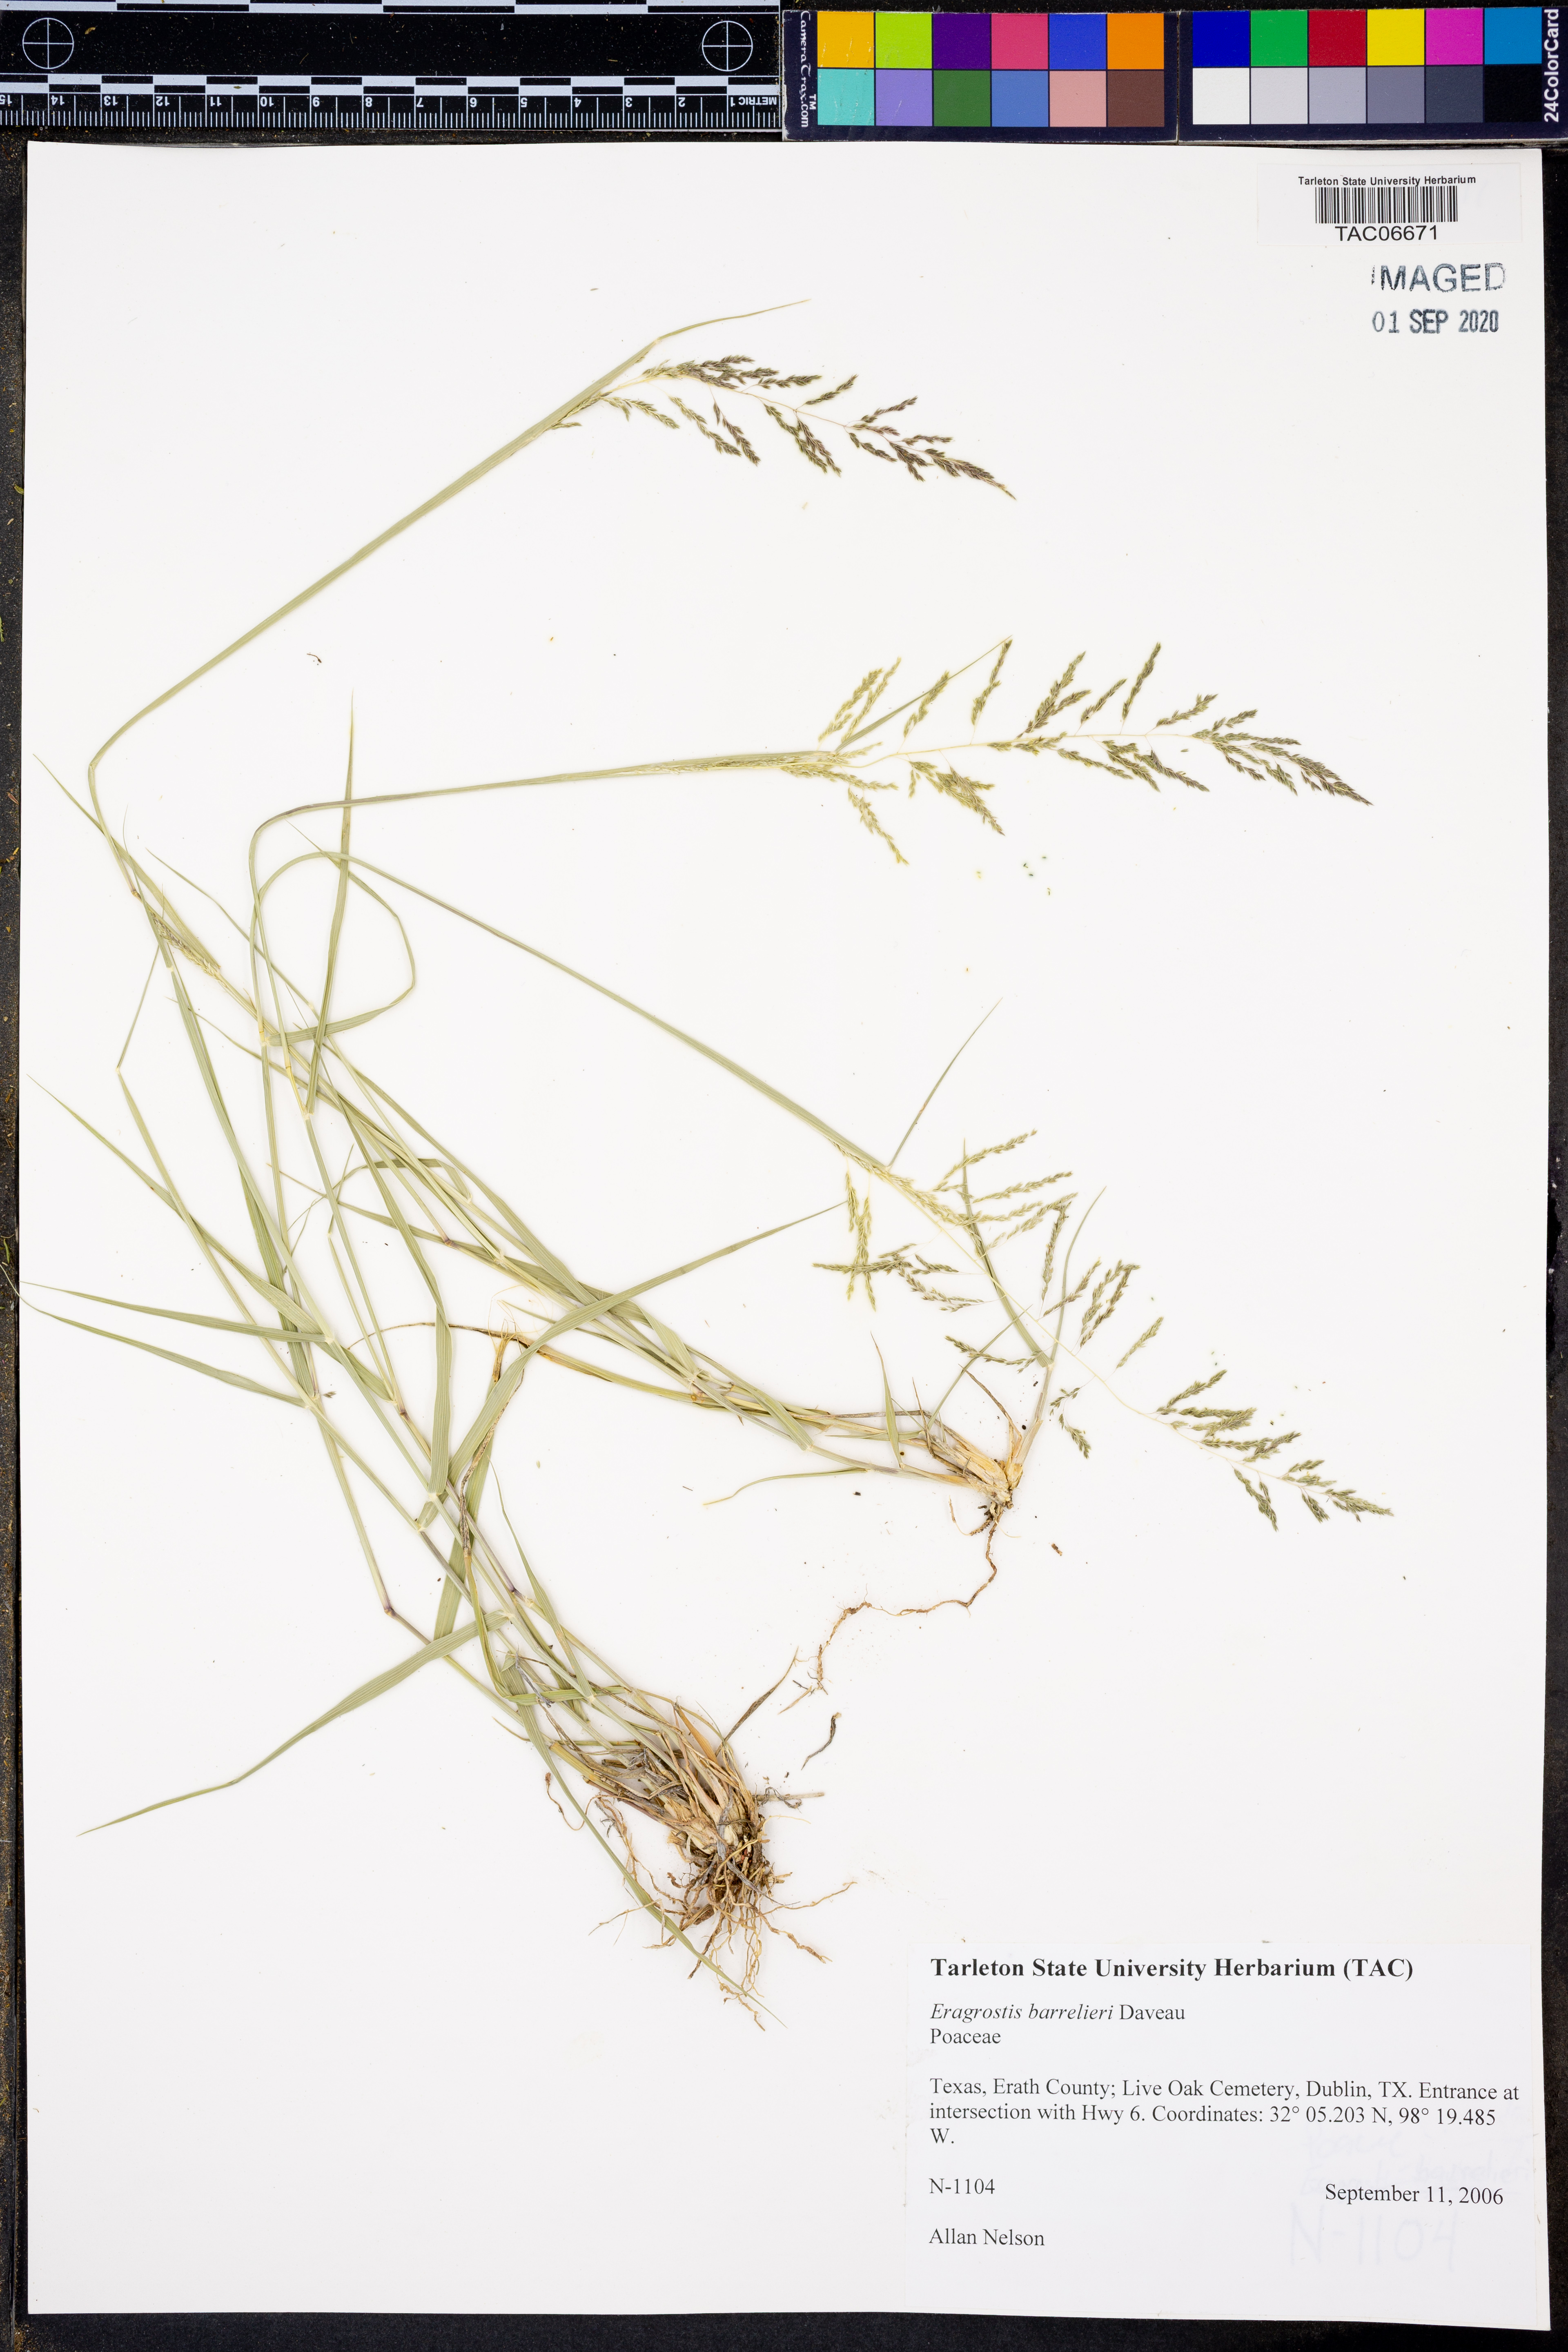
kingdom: Plantae
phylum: Tracheophyta
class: Liliopsida
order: Poales
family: Poaceae
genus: Eragrostis
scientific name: Eragrostis barrelieri
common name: Mediterranean lovegrass
